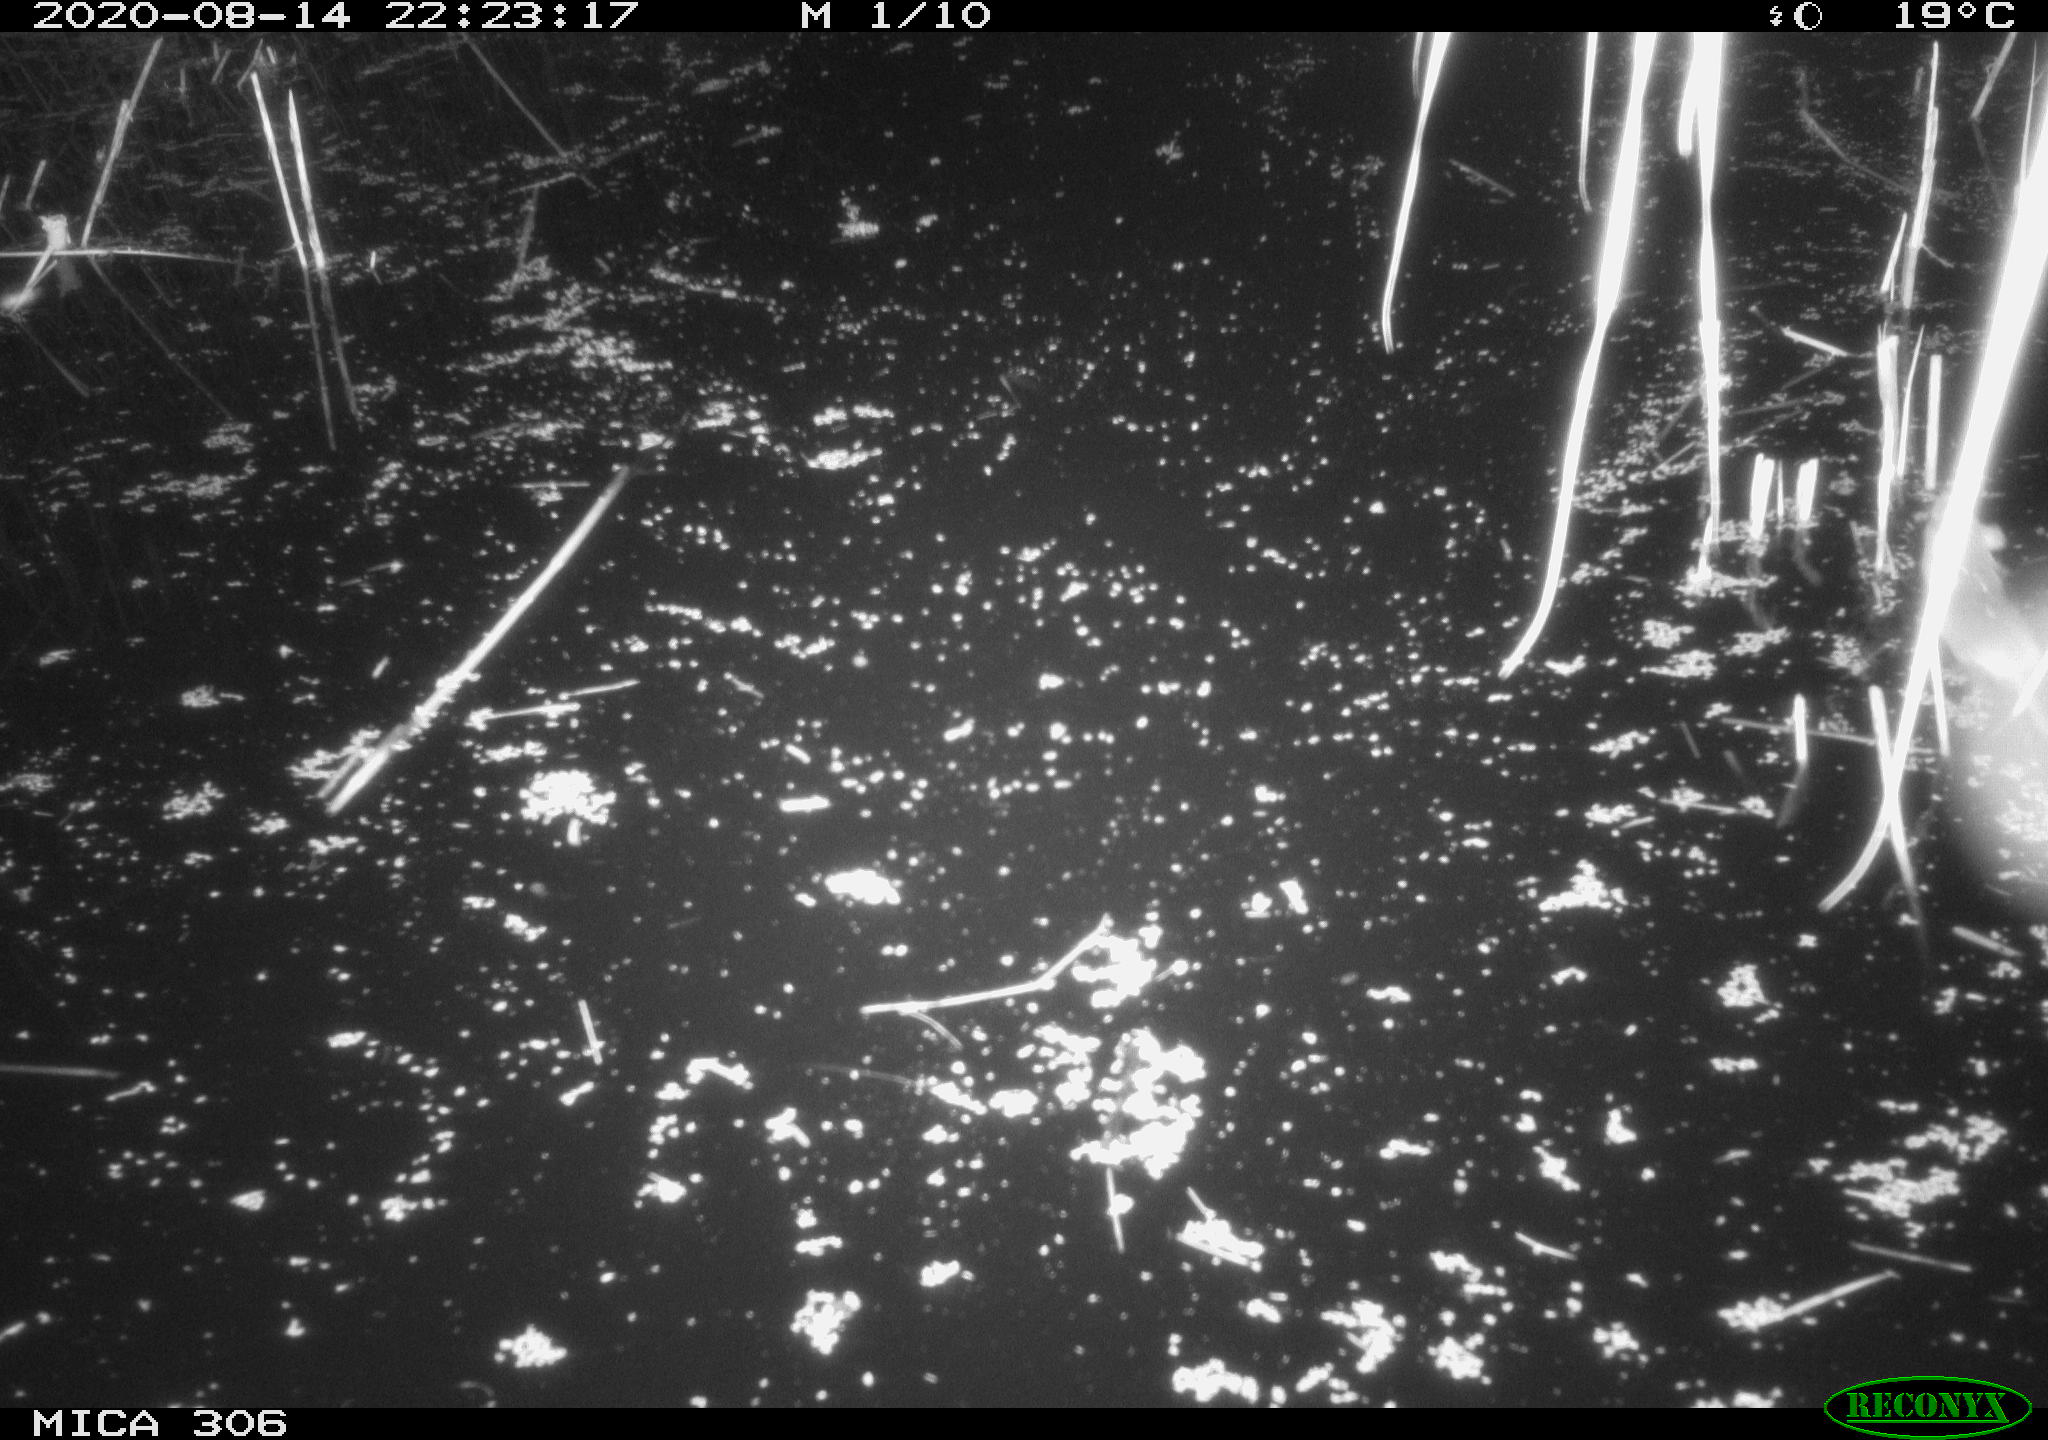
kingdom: Animalia
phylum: Chordata
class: Mammalia
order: Rodentia
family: Muridae
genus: Rattus
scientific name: Rattus norvegicus
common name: Brown rat
